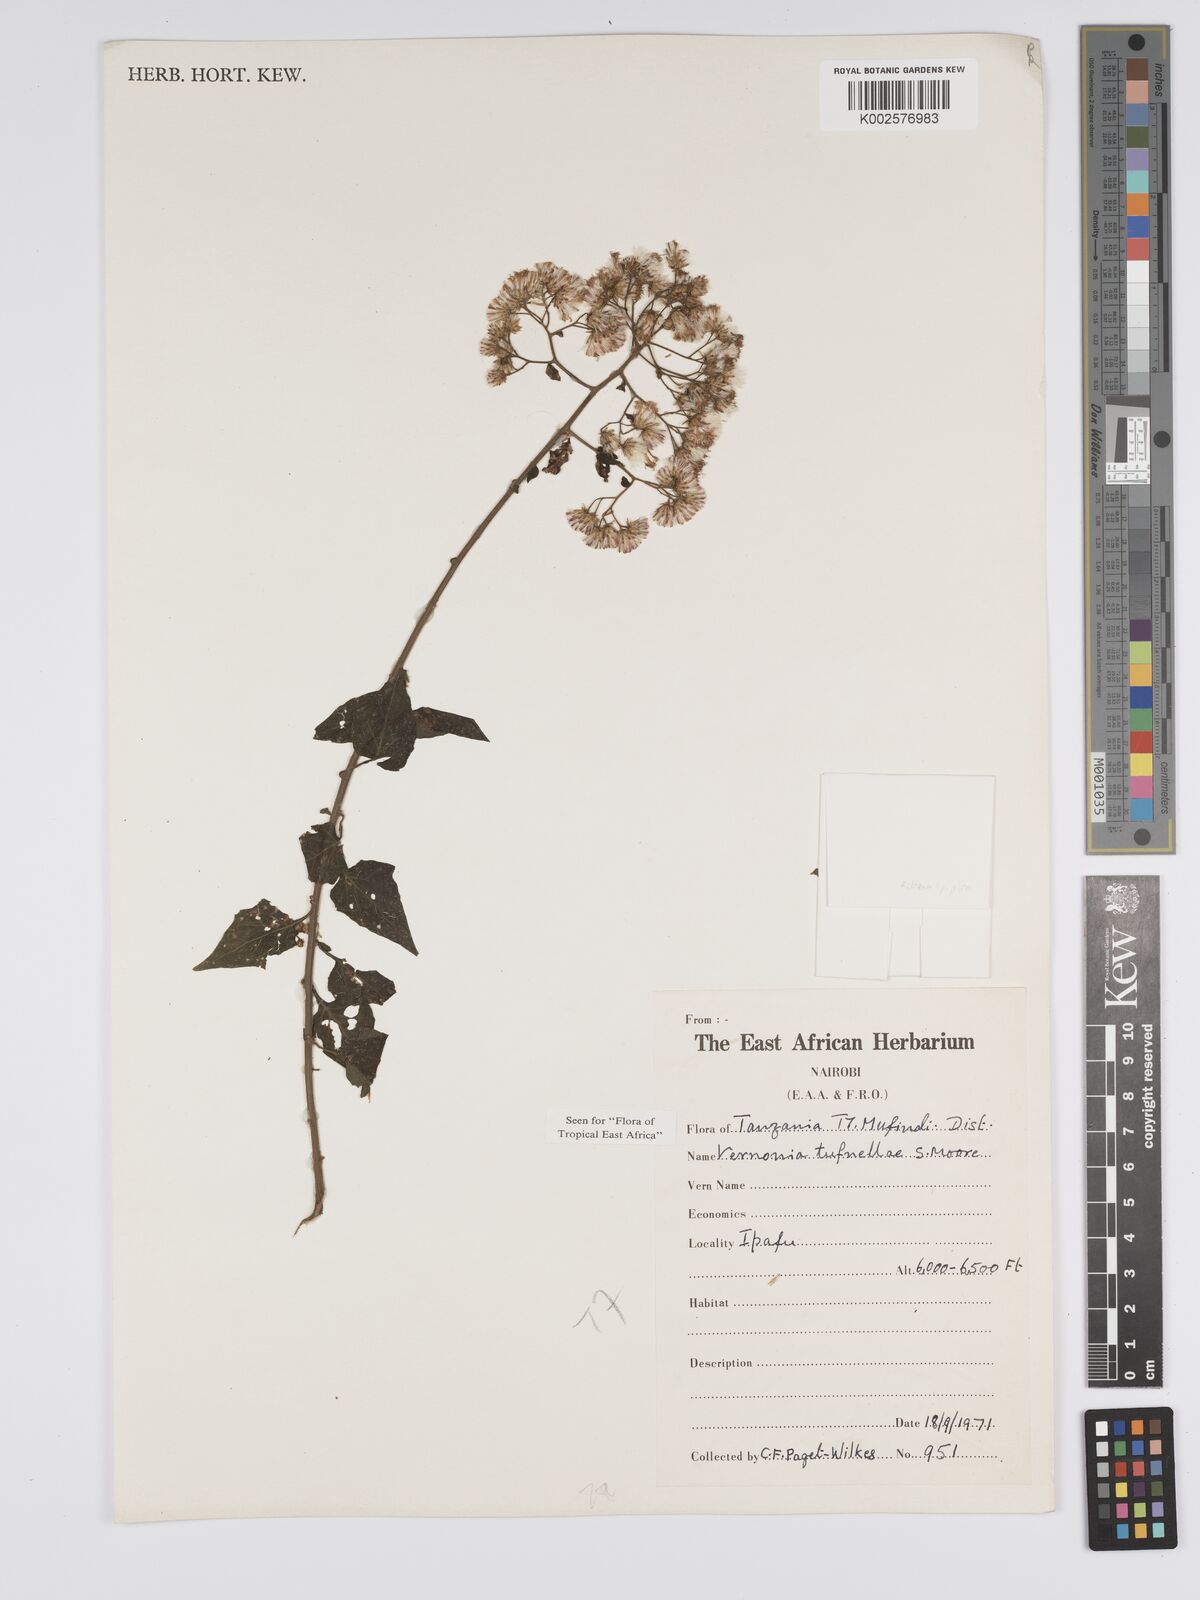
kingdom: Plantae
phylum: Tracheophyta
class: Magnoliopsida
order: Asterales
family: Asteraceae
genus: Distephanus
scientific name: Distephanus biafrae
